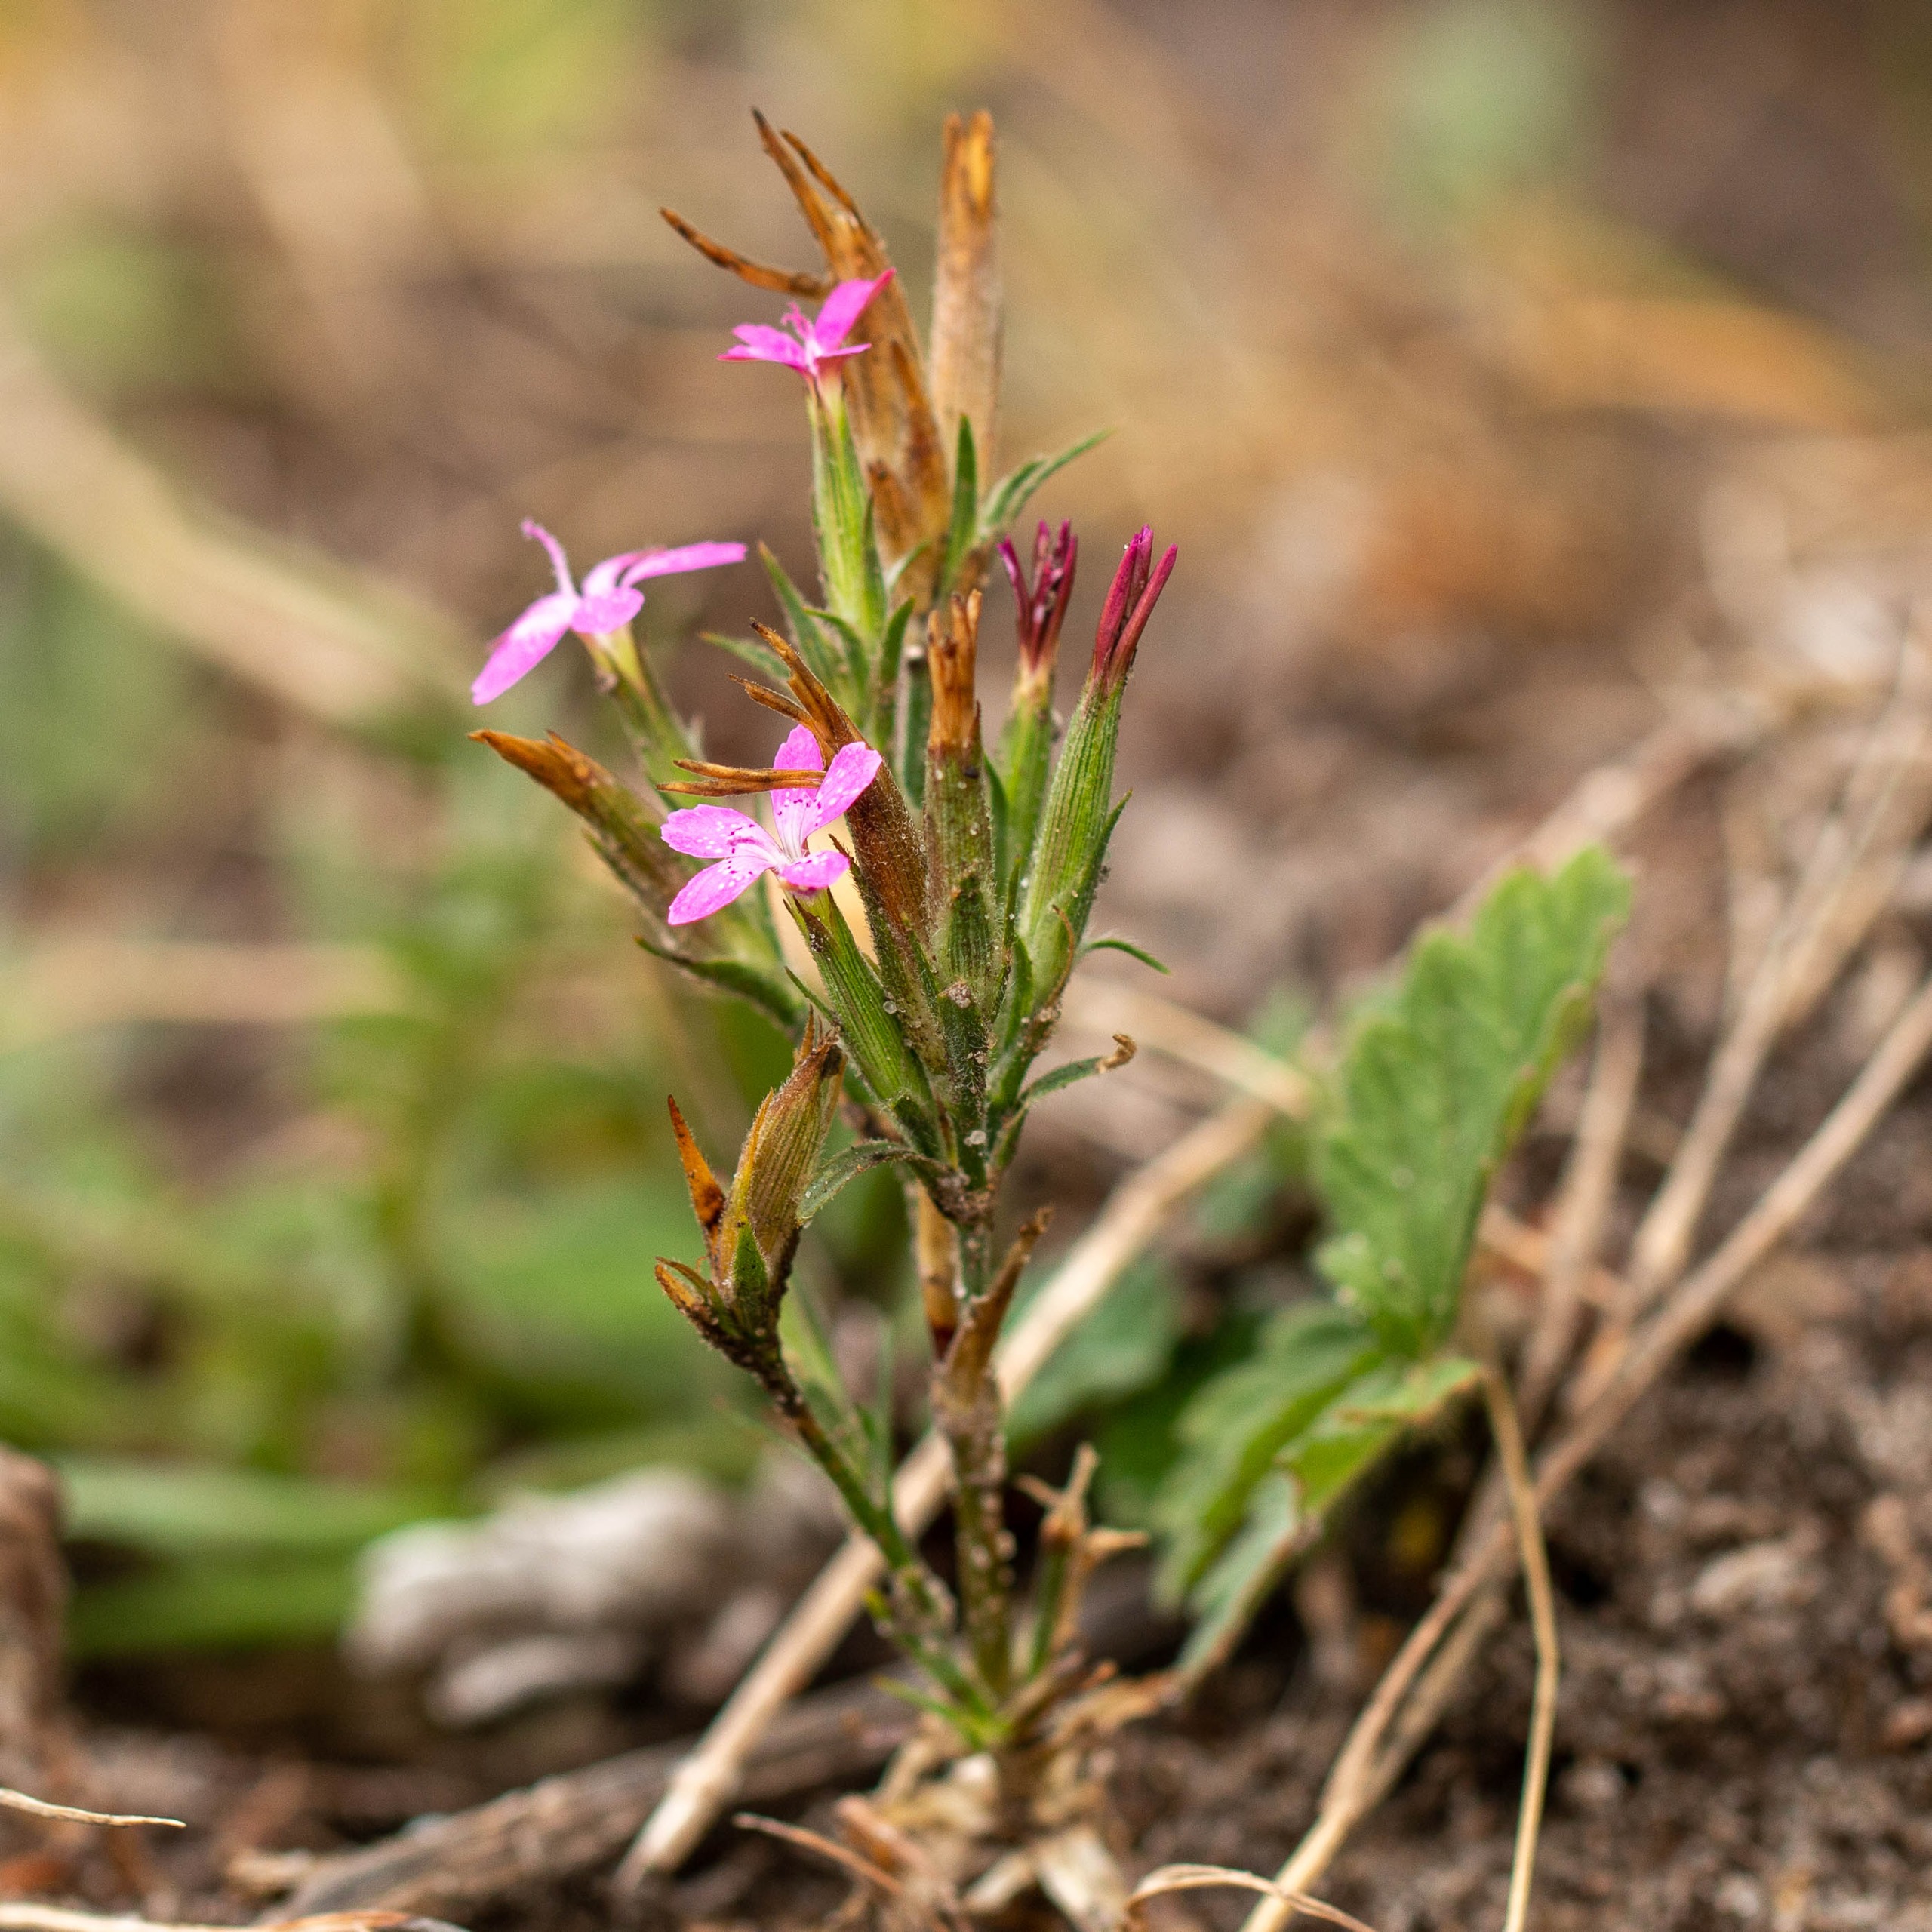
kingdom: Plantae
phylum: Tracheophyta
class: Magnoliopsida
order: Caryophyllales
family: Caryophyllaceae
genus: Dianthus
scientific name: Dianthus armeria
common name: Kost-nellike
